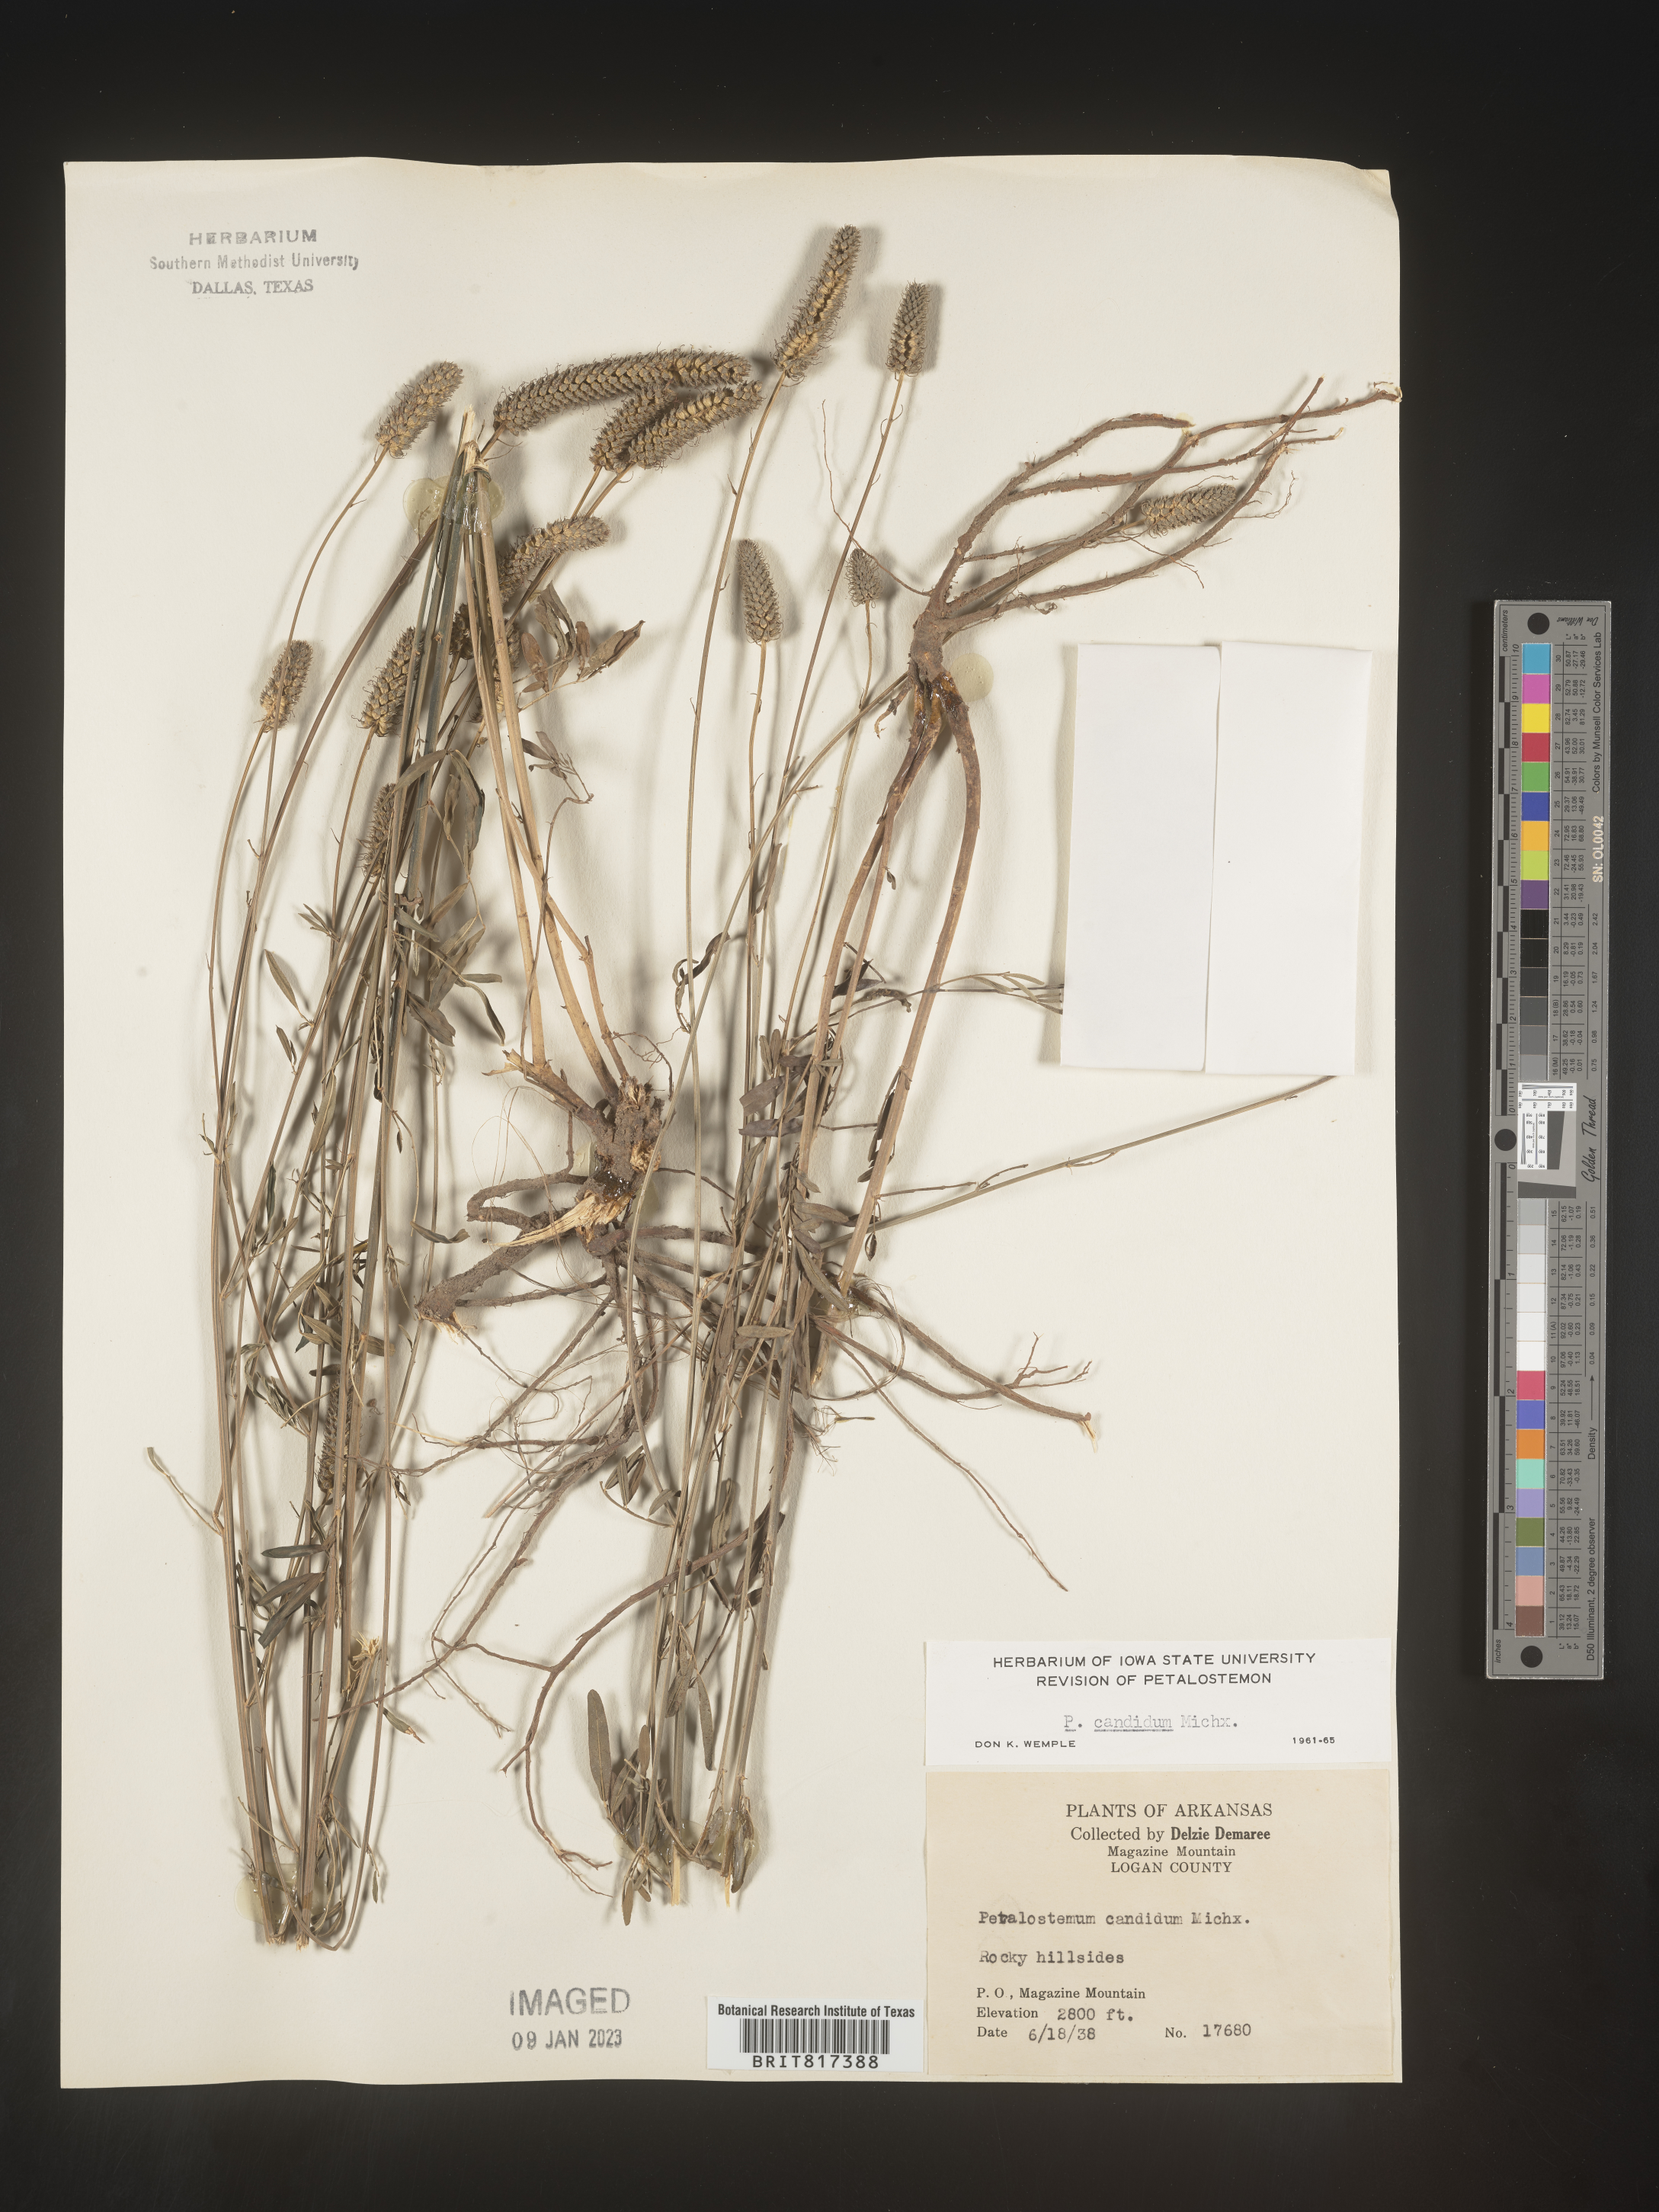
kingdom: Plantae
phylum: Tracheophyta
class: Magnoliopsida
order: Fabales
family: Fabaceae
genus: Dalea
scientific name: Dalea candida
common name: White prairie-clover
